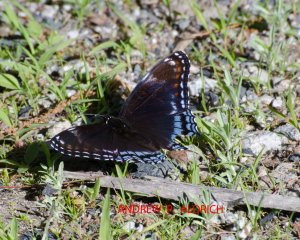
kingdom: Animalia
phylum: Arthropoda
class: Insecta
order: Lepidoptera
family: Nymphalidae
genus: Limenitis
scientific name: Limenitis astyanax
